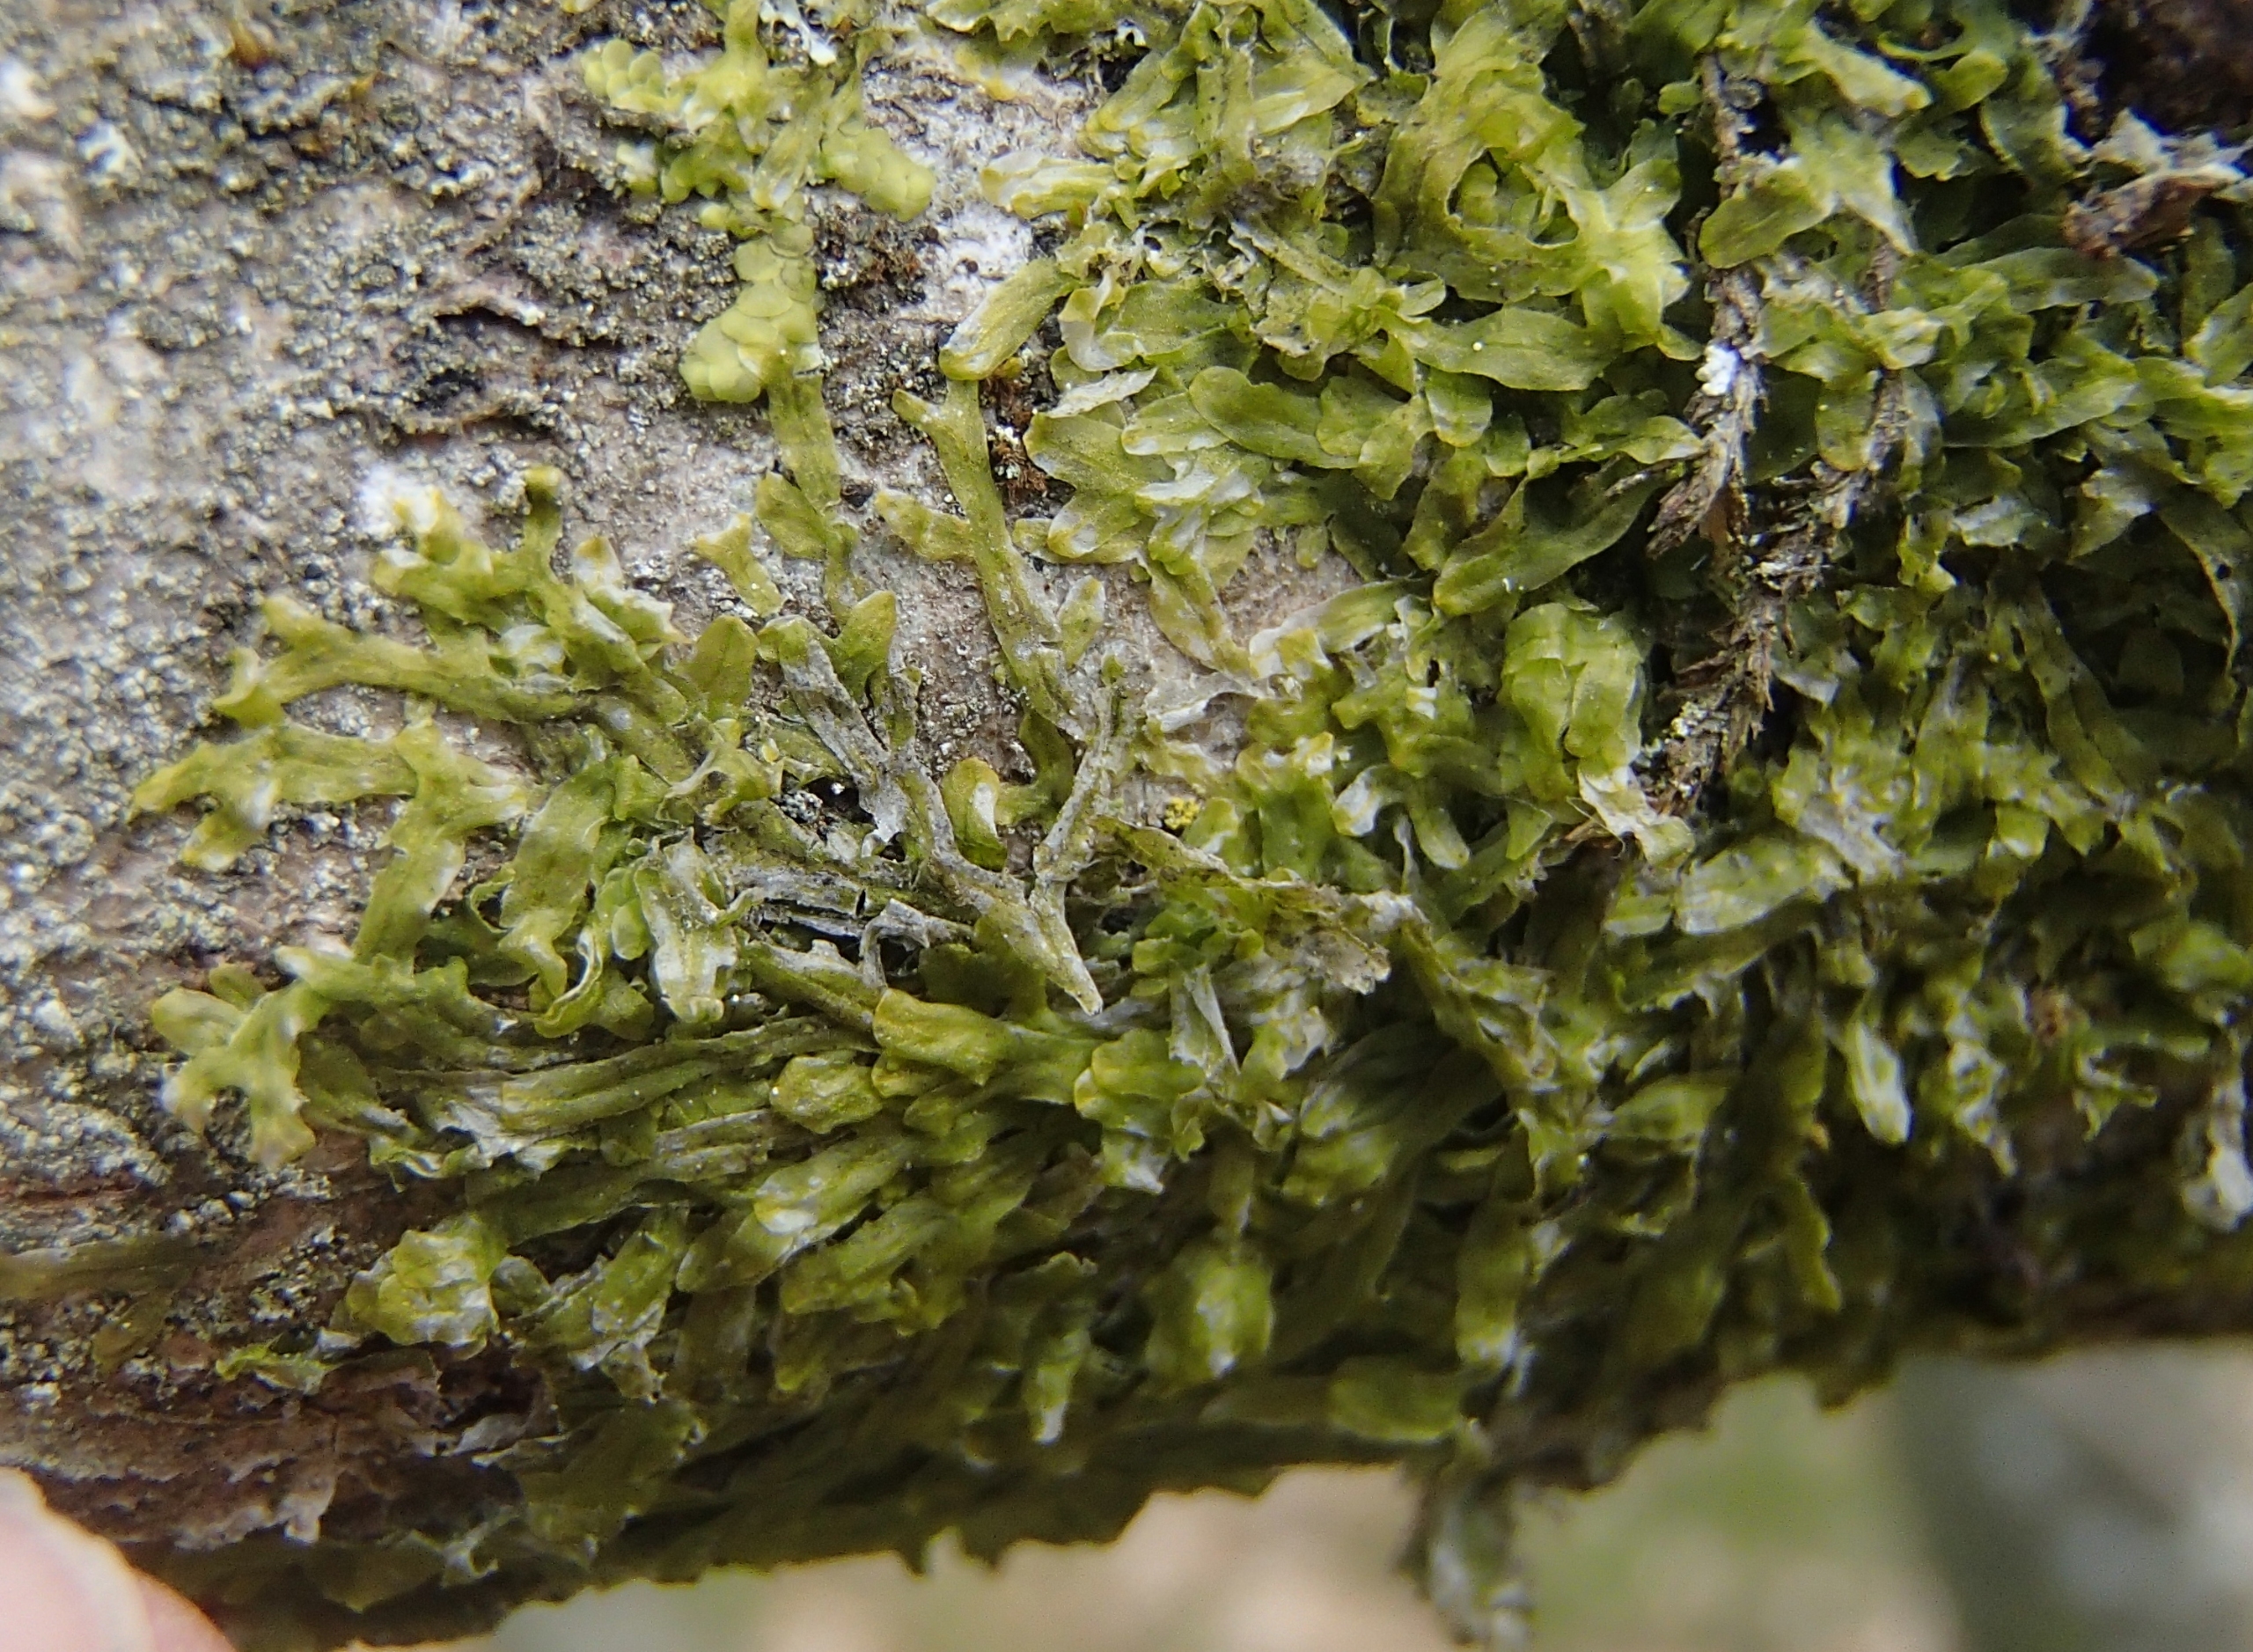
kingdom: Plantae
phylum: Marchantiophyta
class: Jungermanniopsida
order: Metzgeriales
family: Metzgeriaceae
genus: Metzgeria
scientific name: Metzgeria furcata
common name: Almindelig gaffelløv
